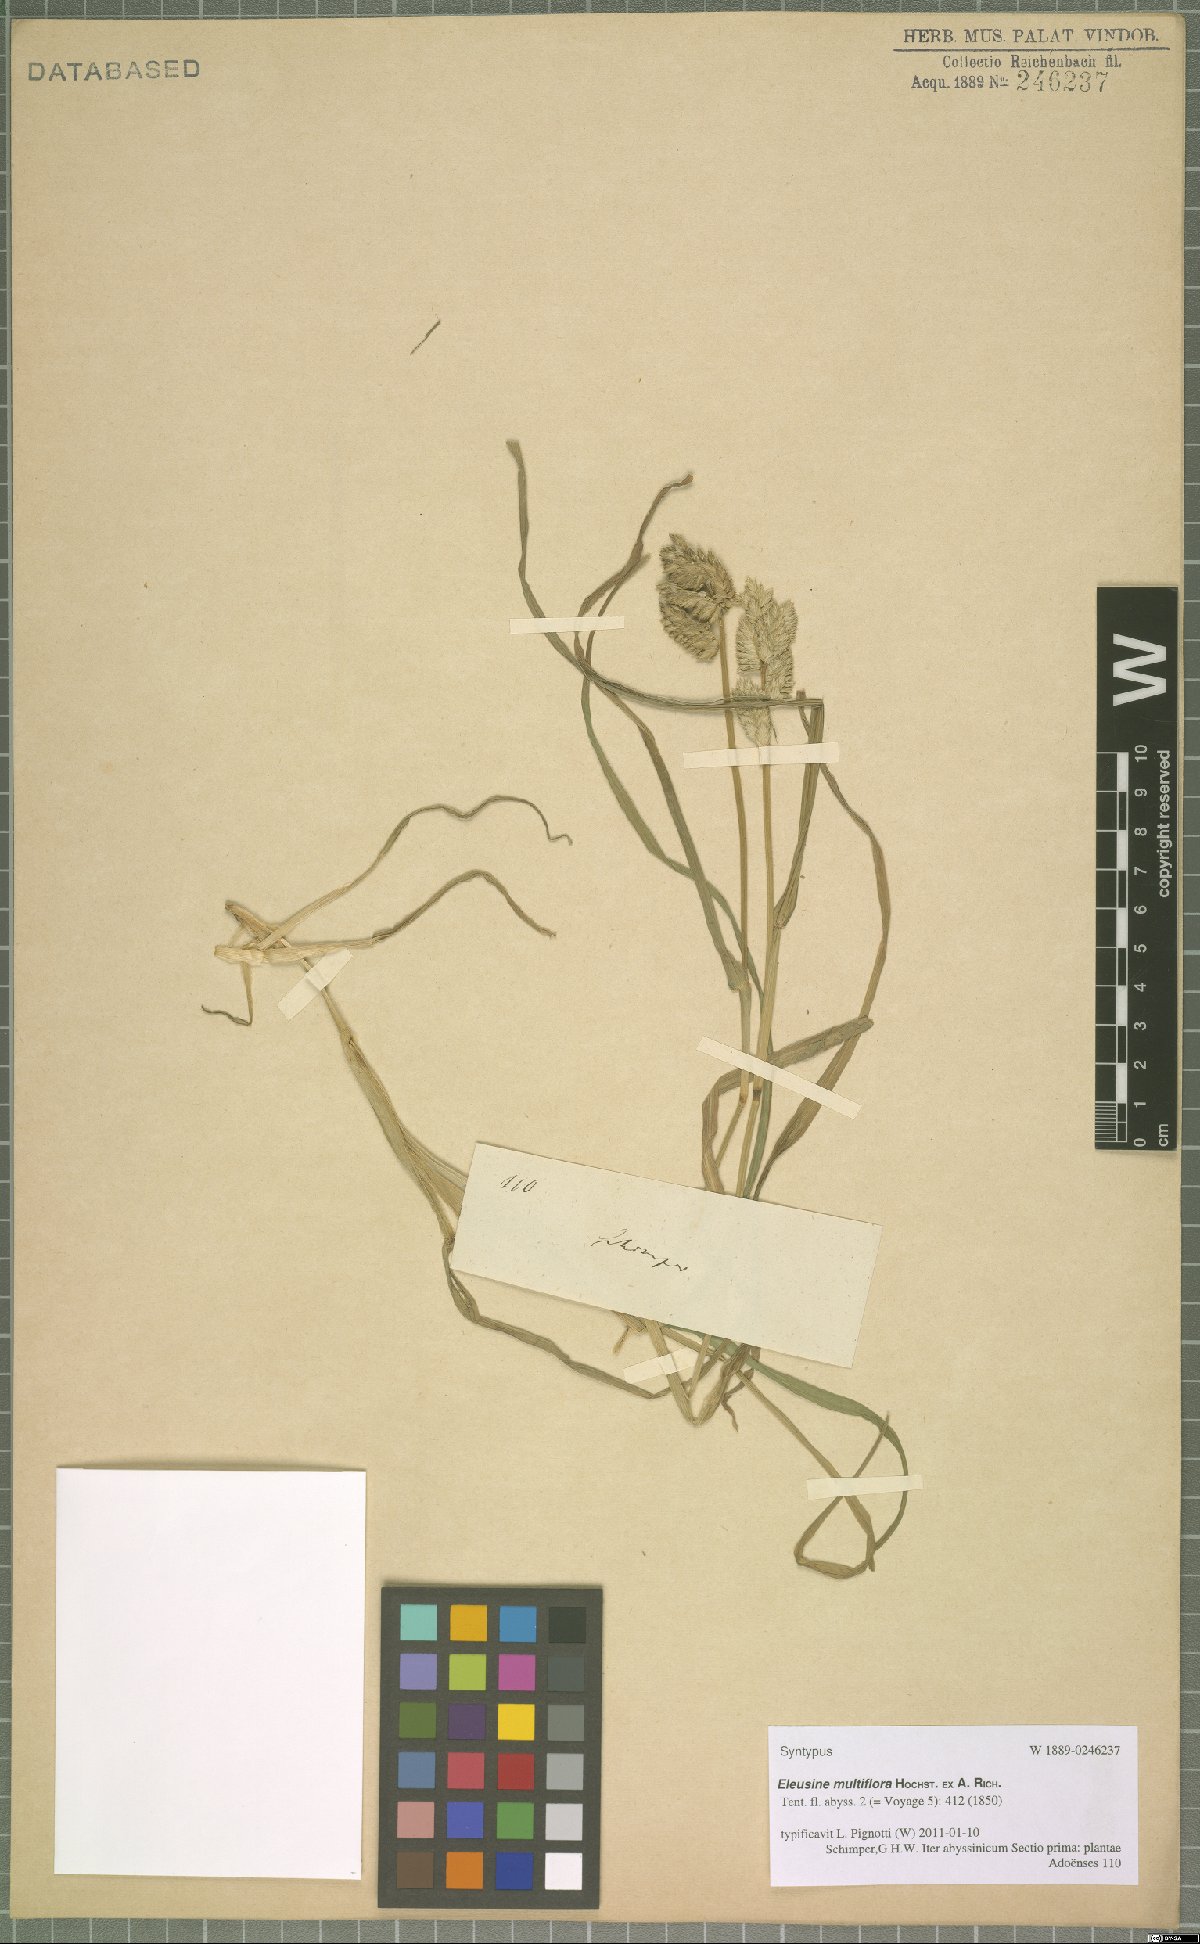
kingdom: Plantae
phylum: Tracheophyta
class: Liliopsida
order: Poales
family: Poaceae
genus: Eleusine
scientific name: Eleusine multiflora
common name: Fat-spiked yard-grass
